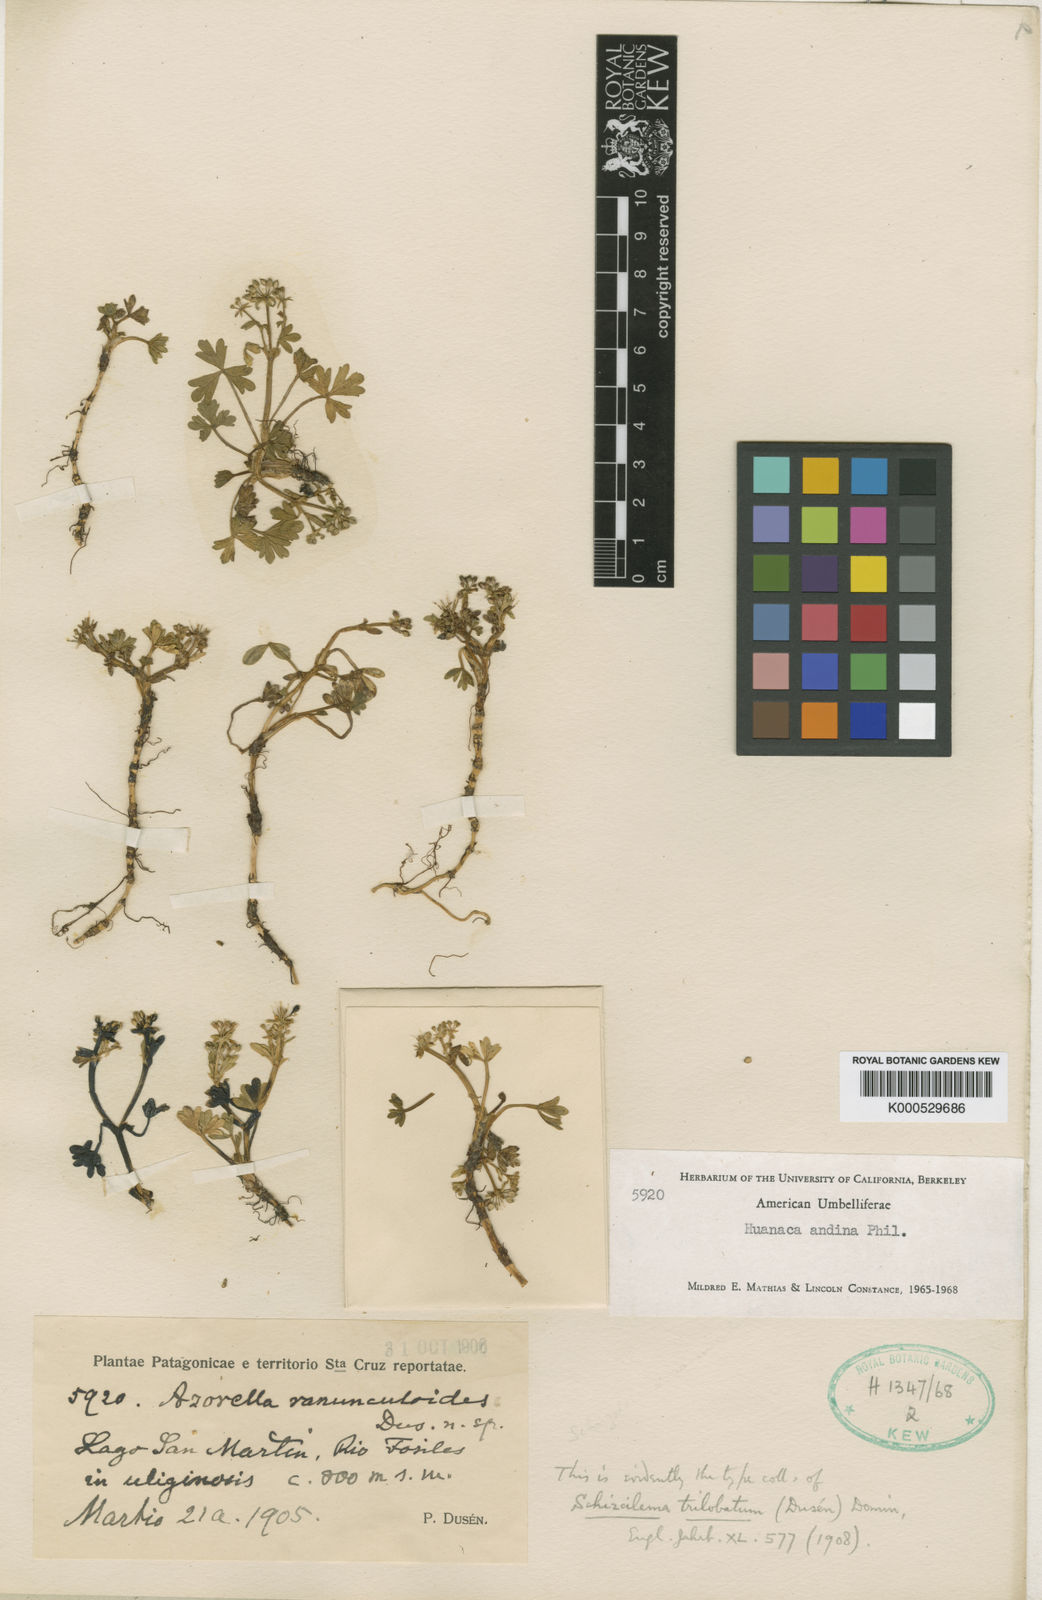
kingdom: Plantae
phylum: Tracheophyta
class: Magnoliopsida
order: Apiales
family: Apiaceae
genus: Azorella
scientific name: Azorella andina
